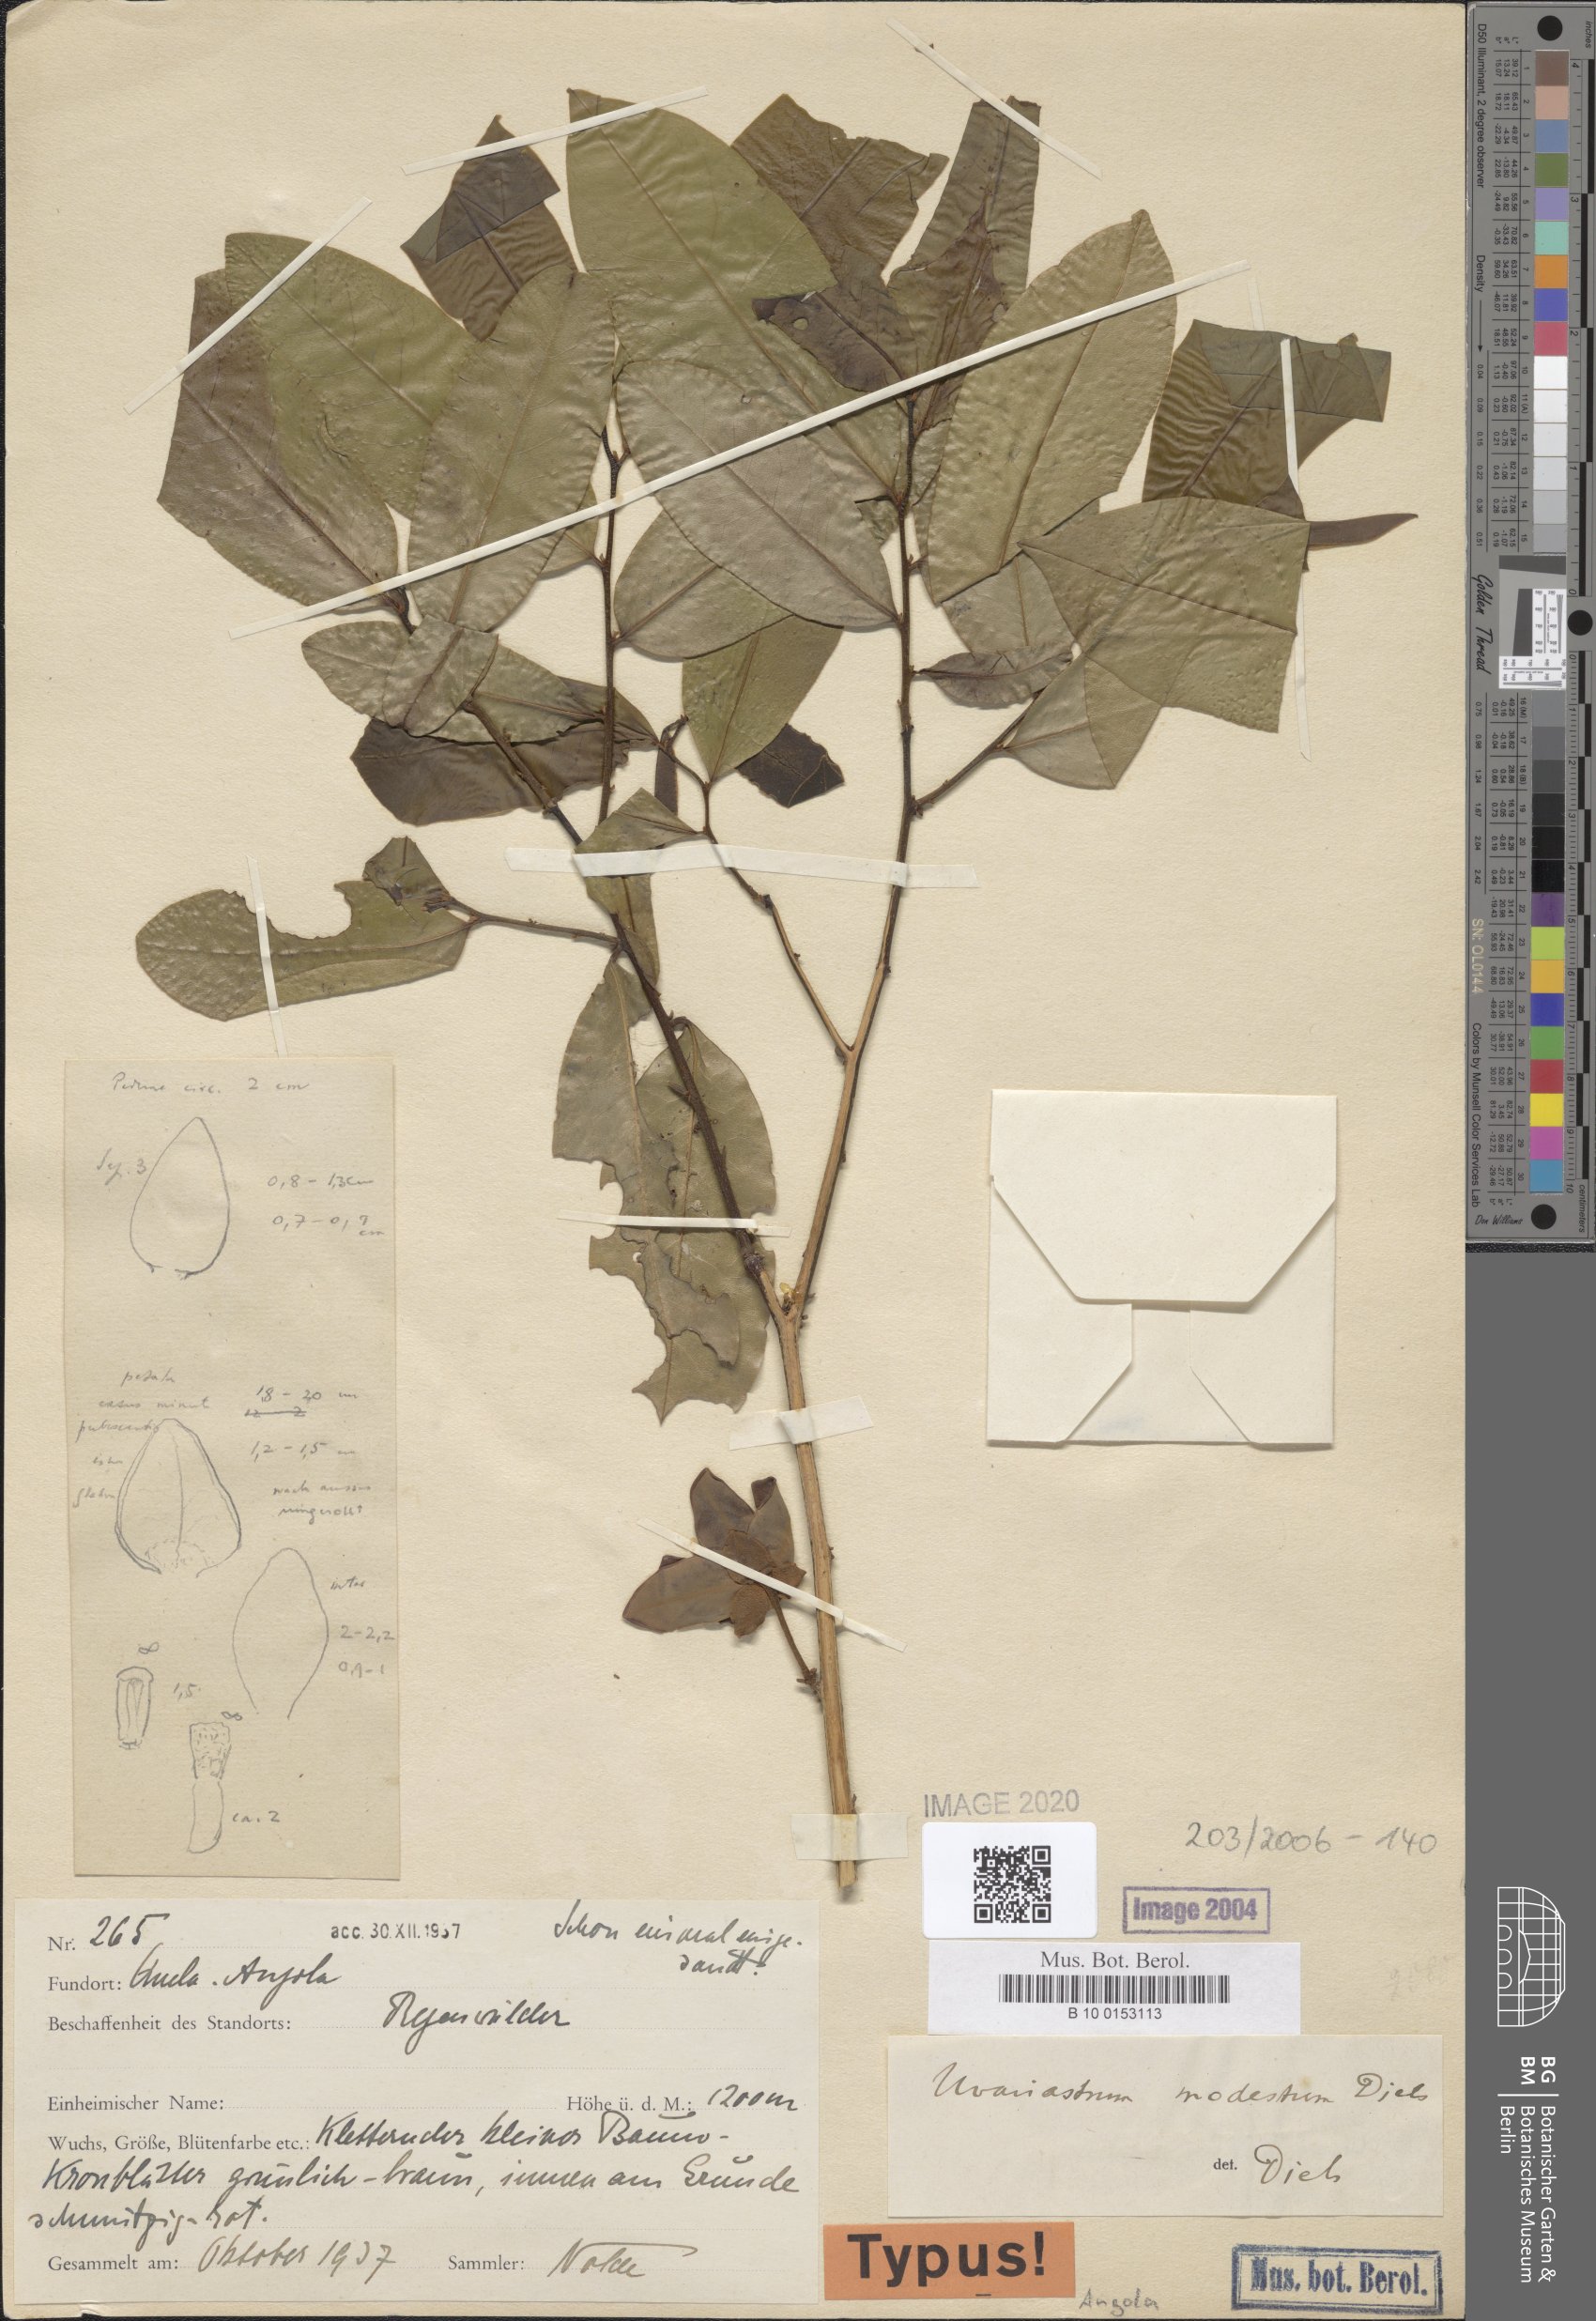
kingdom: Plantae
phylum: Tracheophyta
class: Magnoliopsida
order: Magnoliales
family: Annonaceae
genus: Uvariastrum
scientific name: Uvariastrum modestum
